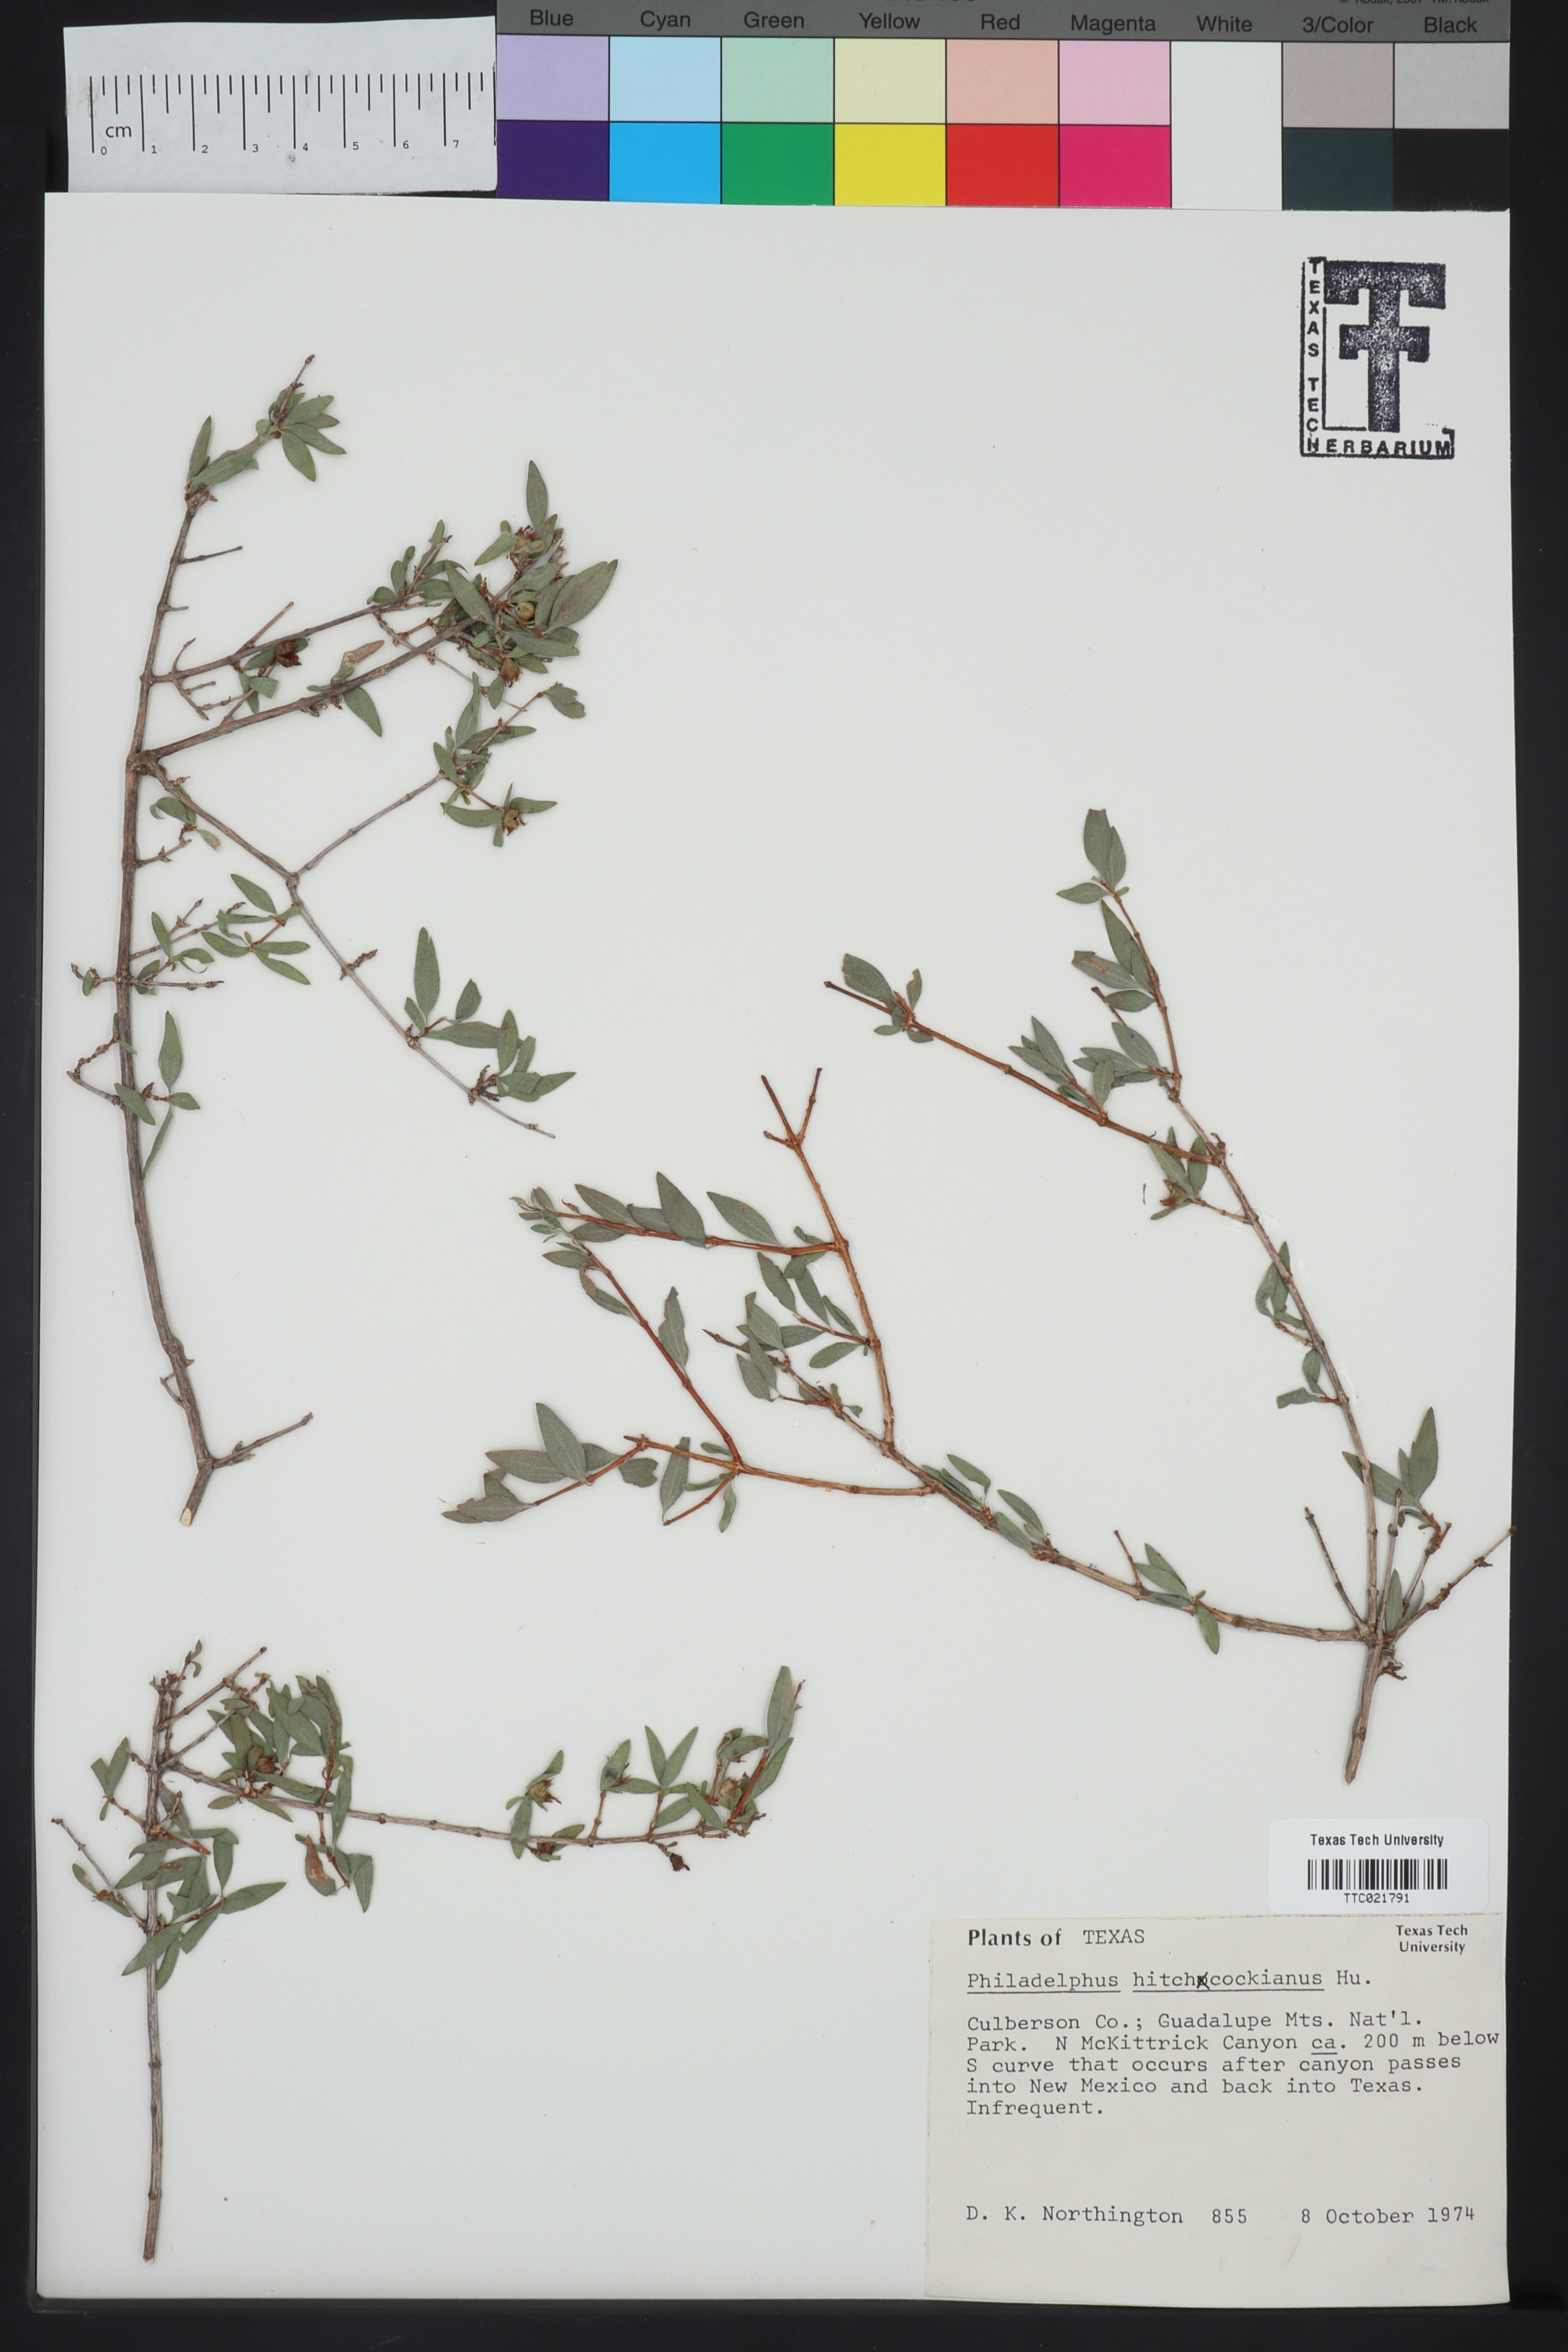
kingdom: Plantae
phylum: Tracheophyta
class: Magnoliopsida
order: Cornales
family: Hydrangeaceae
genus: Philadelphus
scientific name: Philadelphus mearnsii
